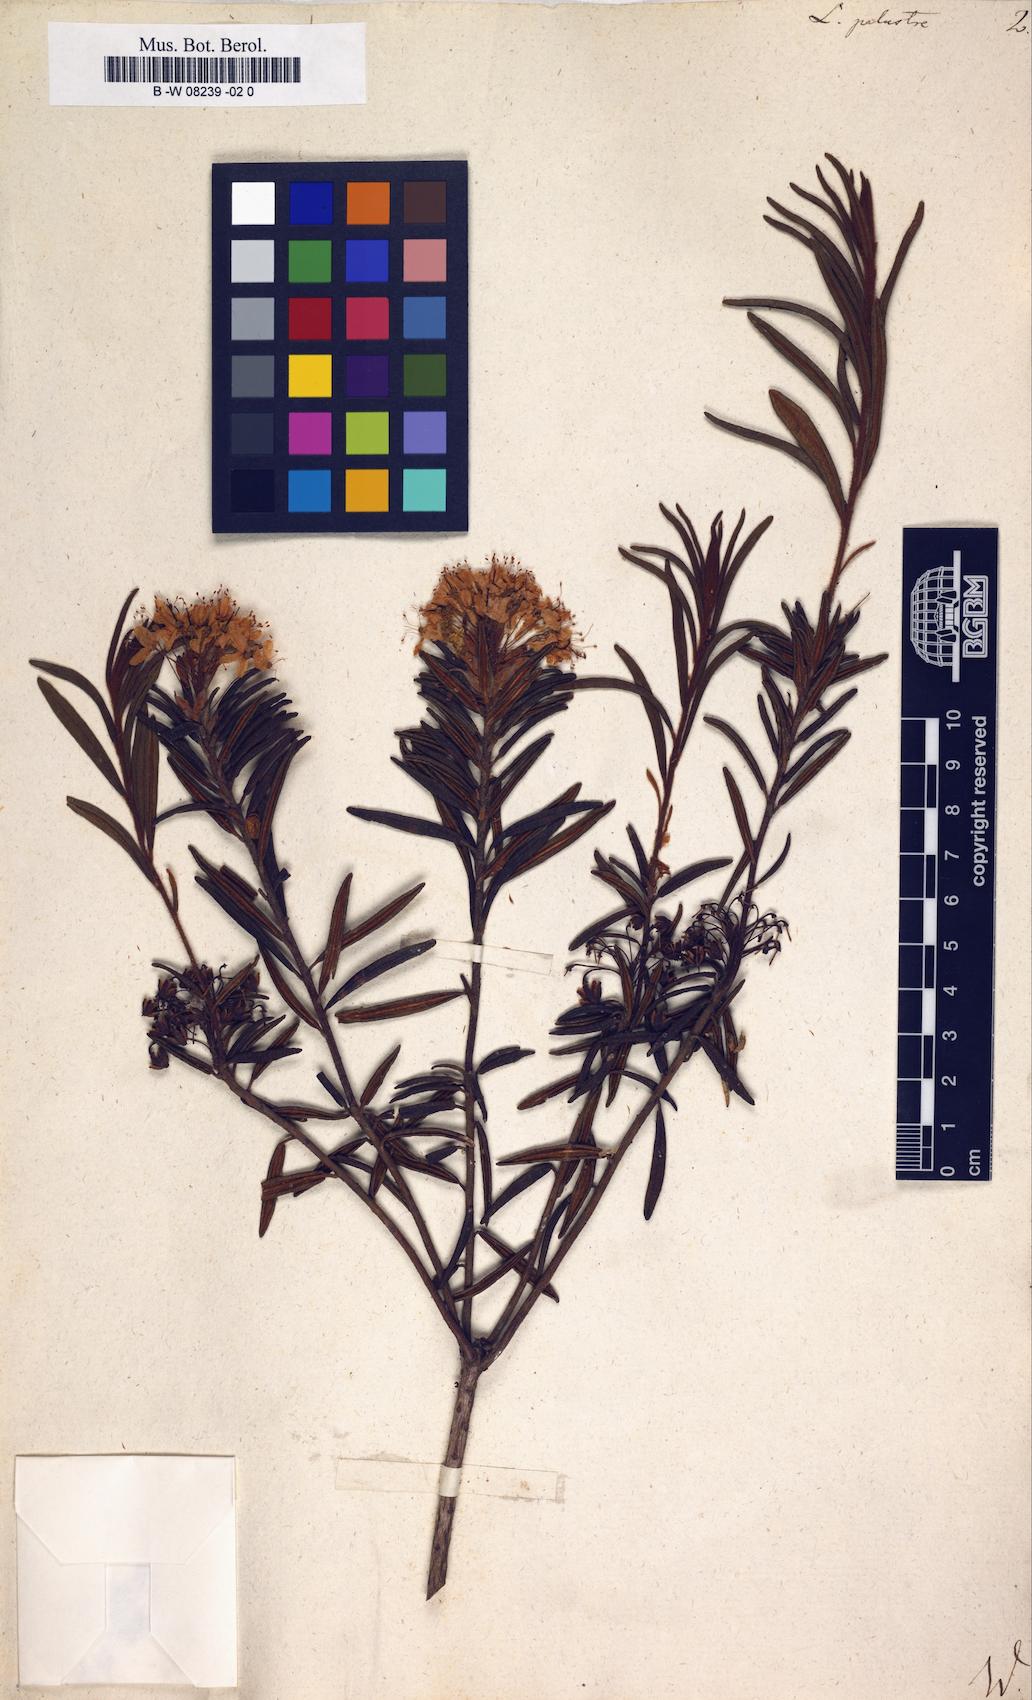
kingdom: Plantae
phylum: Tracheophyta
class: Magnoliopsida
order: Ericales
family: Ericaceae
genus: Rhododendron
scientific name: Rhododendron tomentosum
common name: Marsh labrador tea
